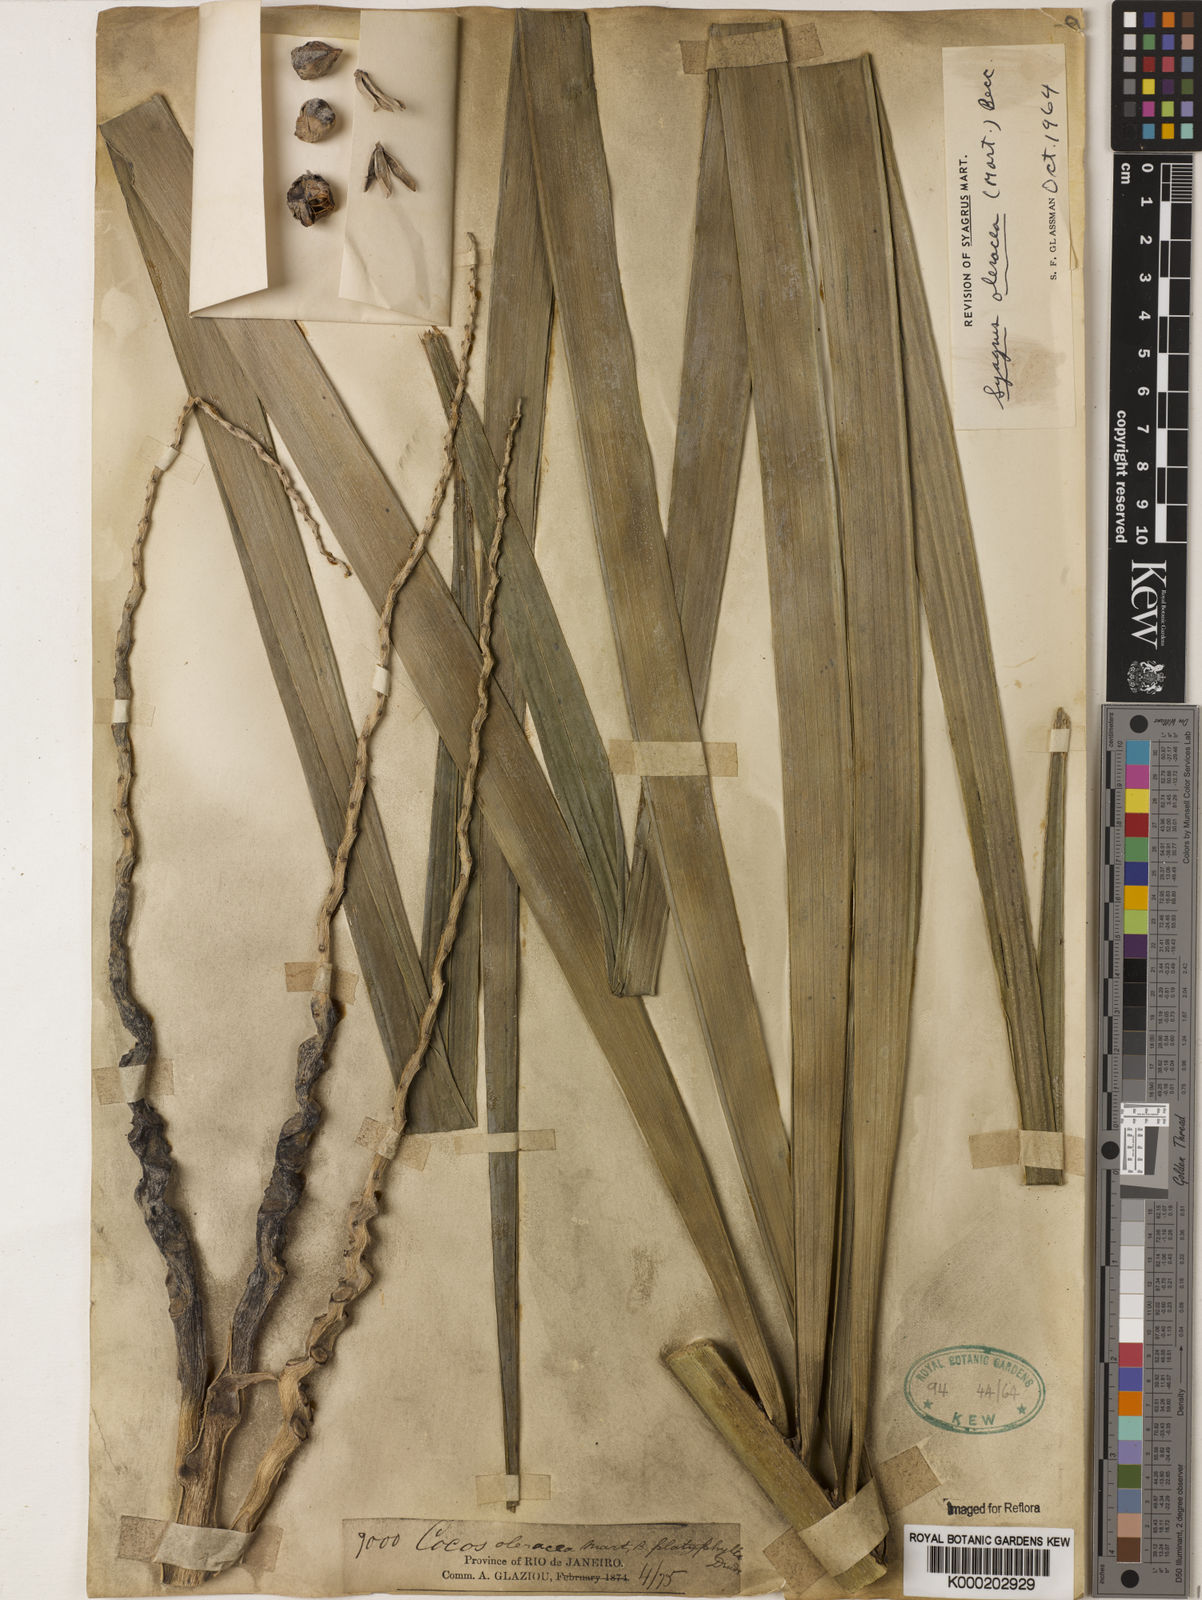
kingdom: Plantae
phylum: Tracheophyta
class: Liliopsida
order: Arecales
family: Arecaceae
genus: Syagrus
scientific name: Syagrus oleracea
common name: Catole palm
